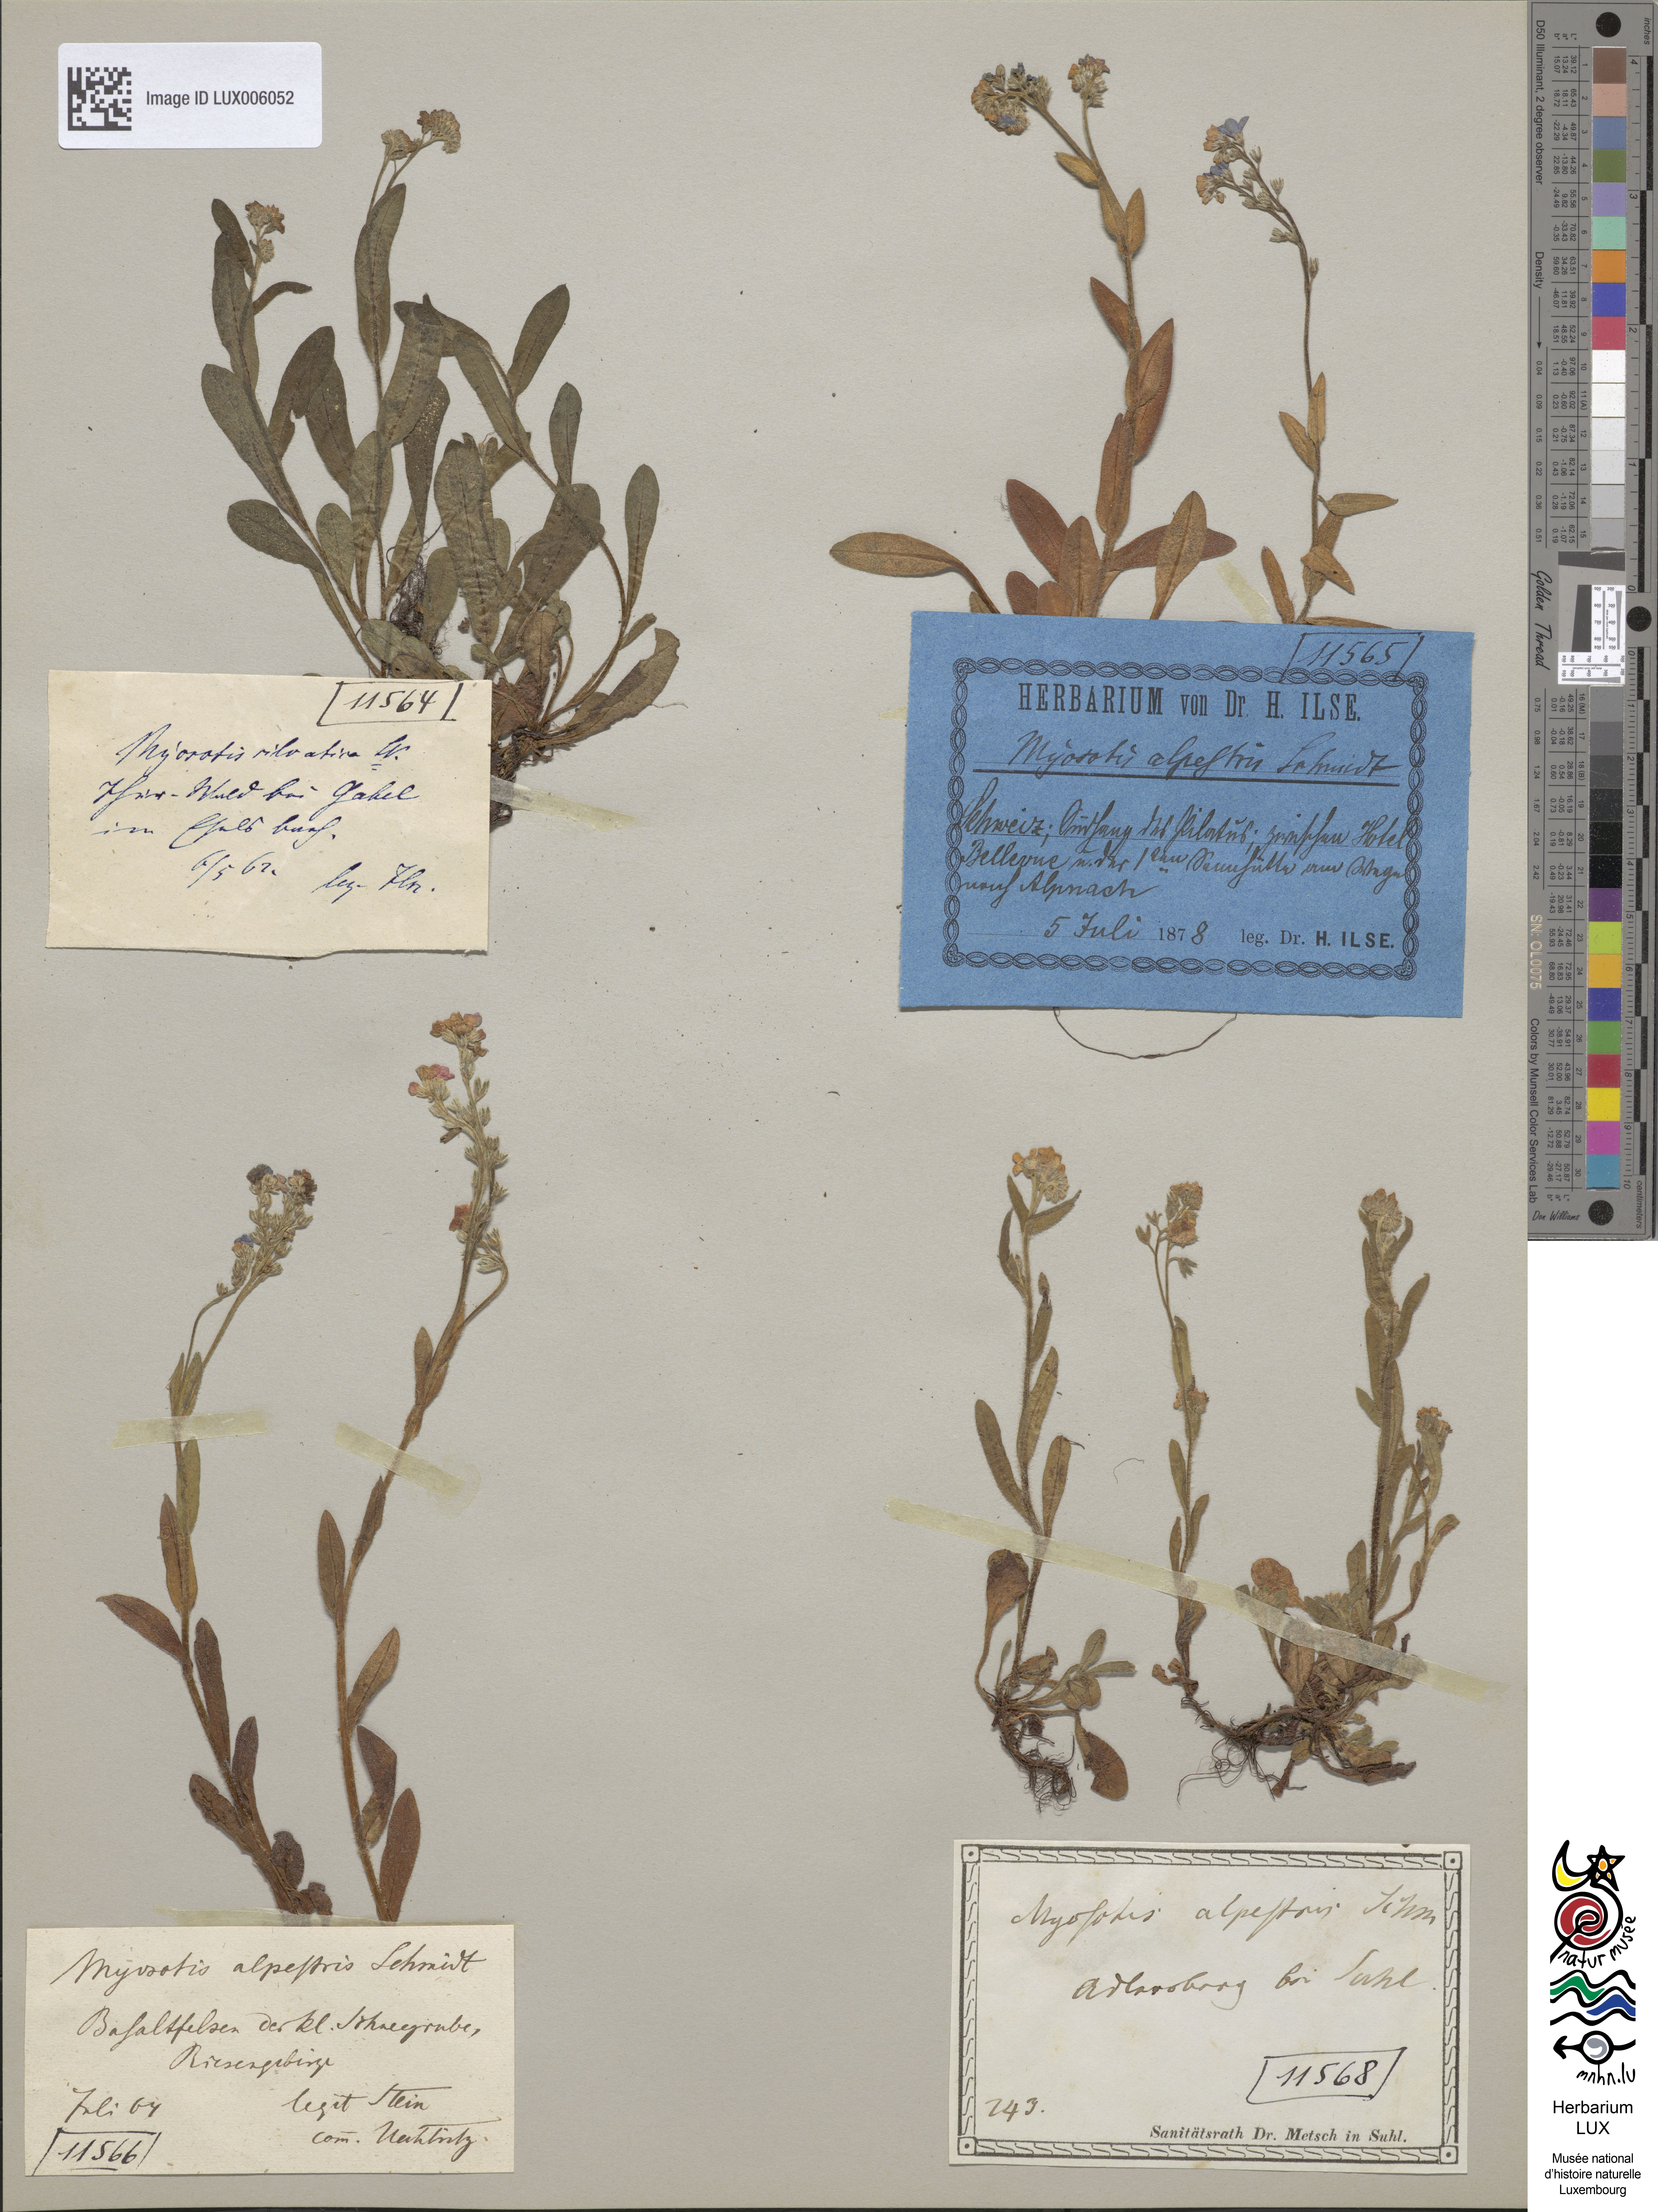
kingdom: Plantae
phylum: Tracheophyta
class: Magnoliopsida
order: Boraginales
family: Boraginaceae
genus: Myosotis
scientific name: Myosotis alpestris
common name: Alpine forget-me-not
